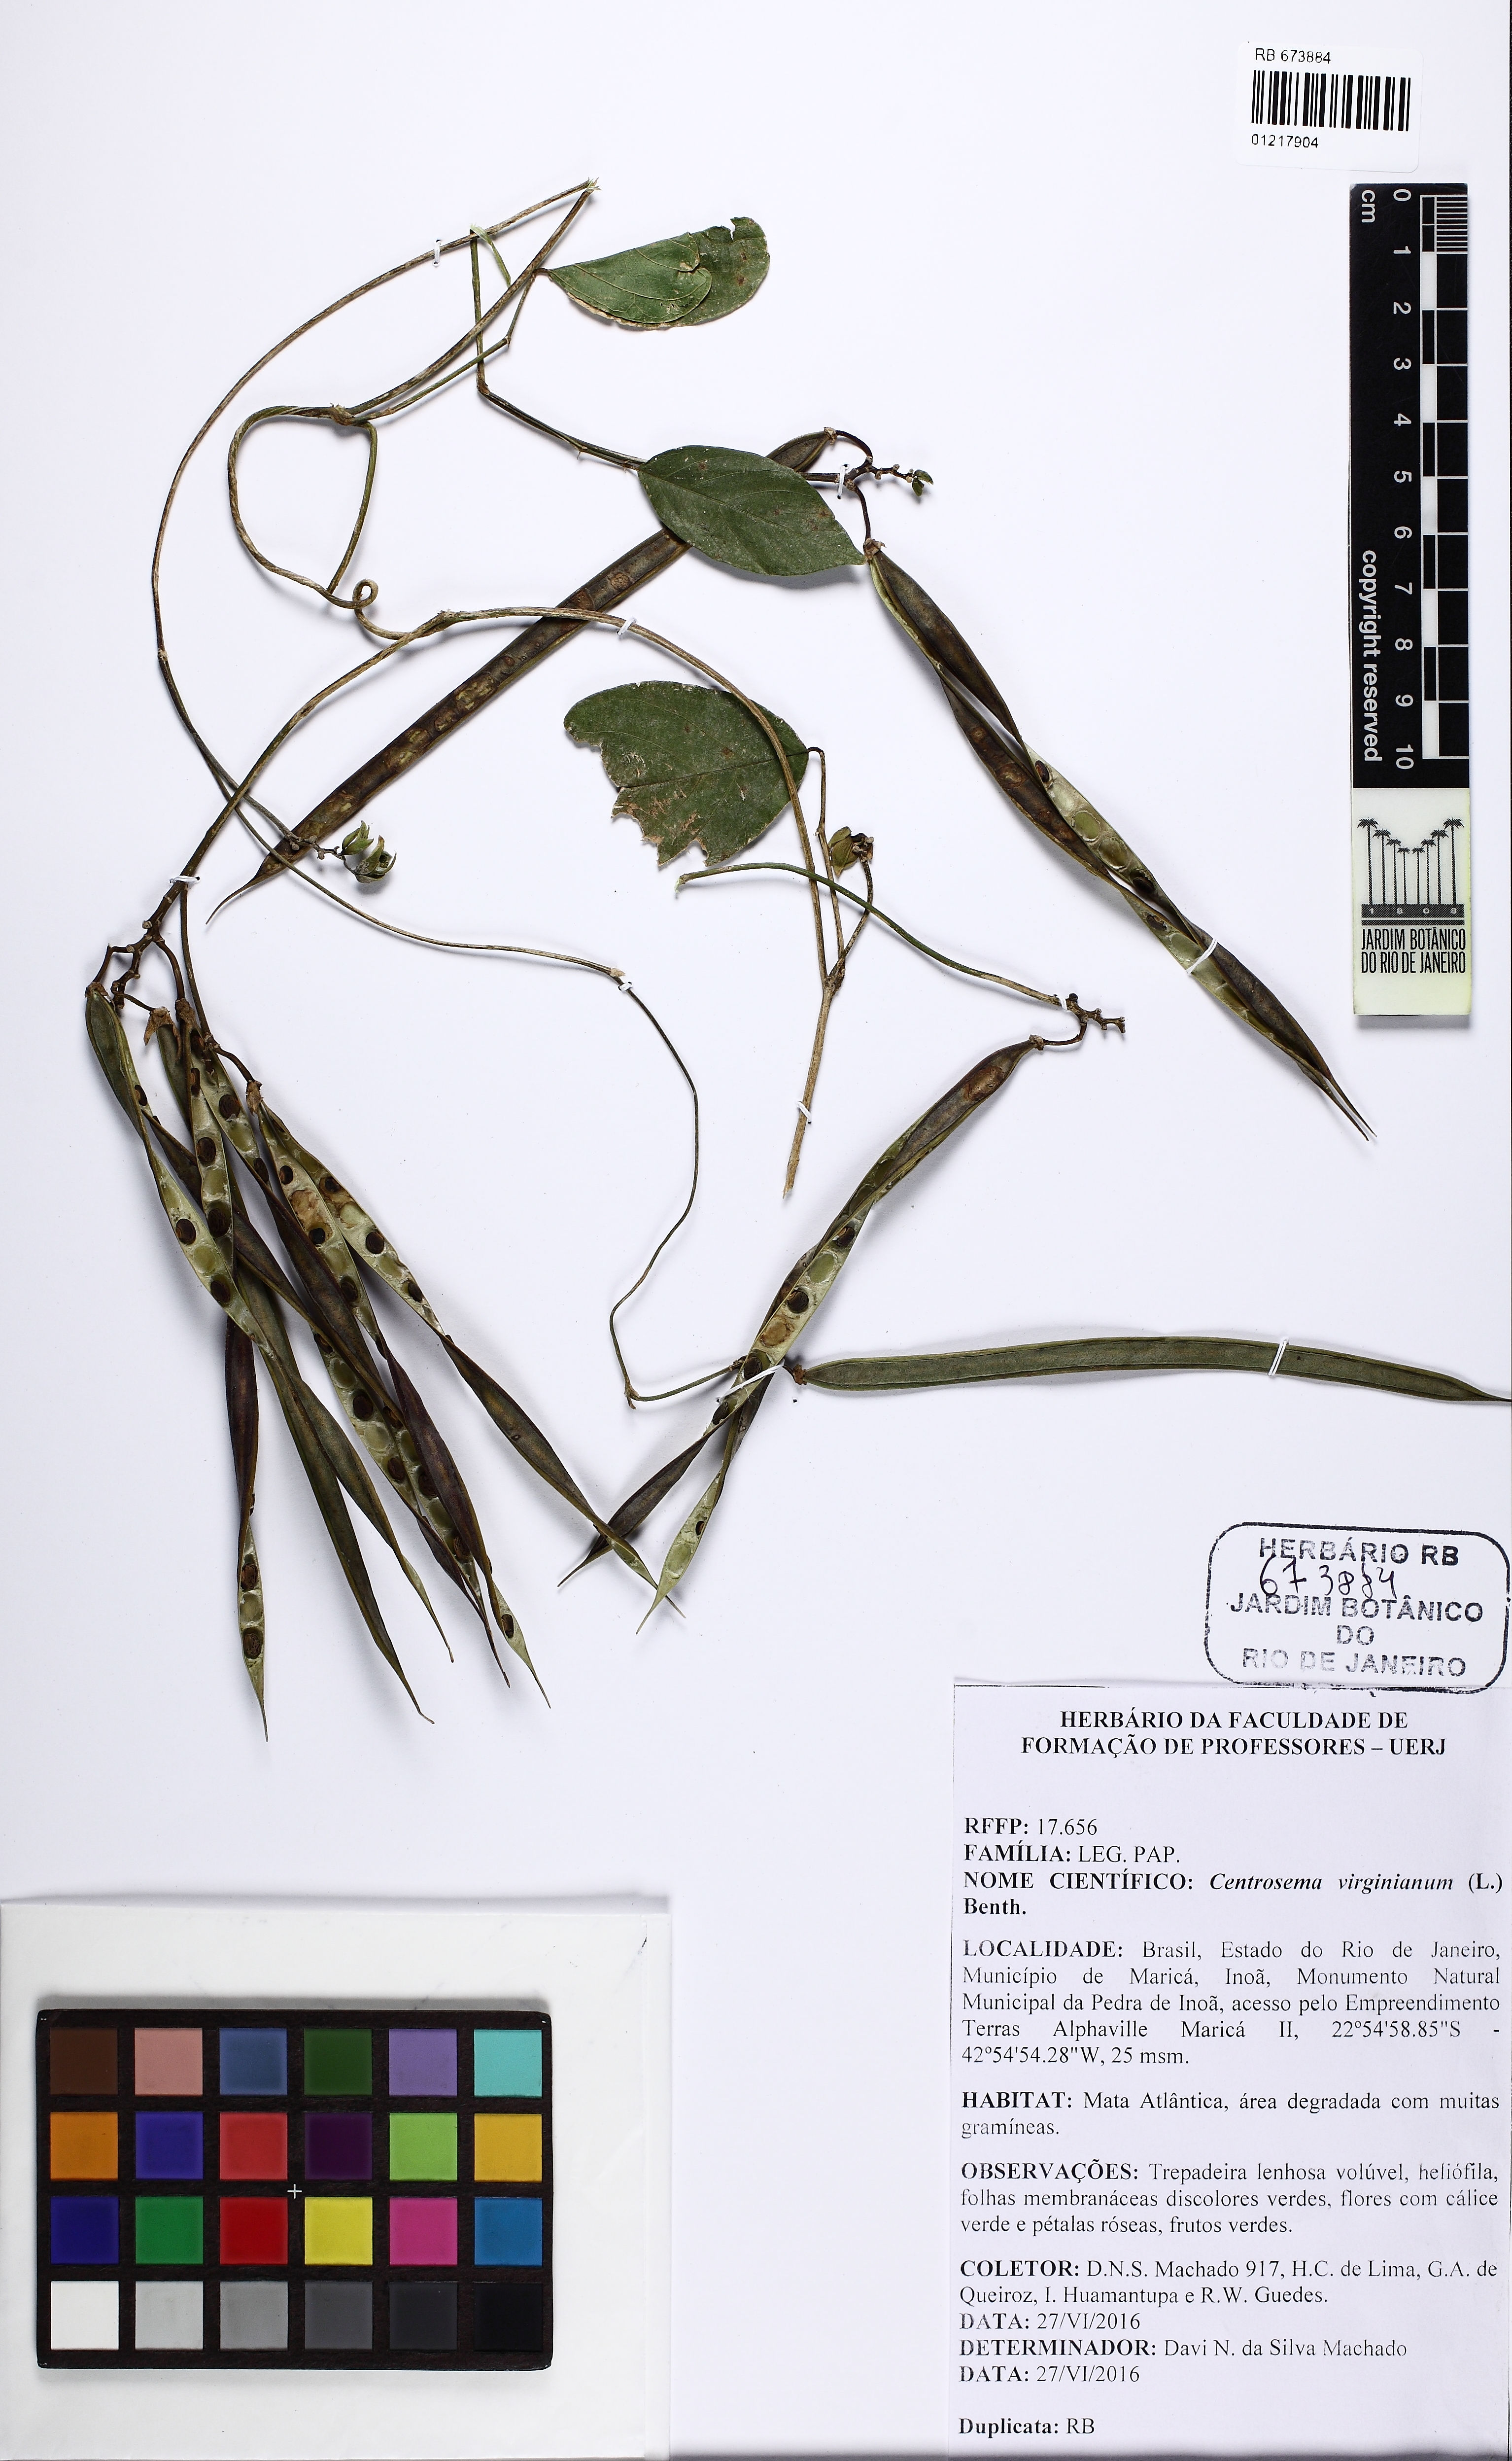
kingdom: Plantae
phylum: Tracheophyta
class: Magnoliopsida
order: Fabales
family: Fabaceae
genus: Centrosema
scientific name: Centrosema virginianum
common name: Butterfly-pea
